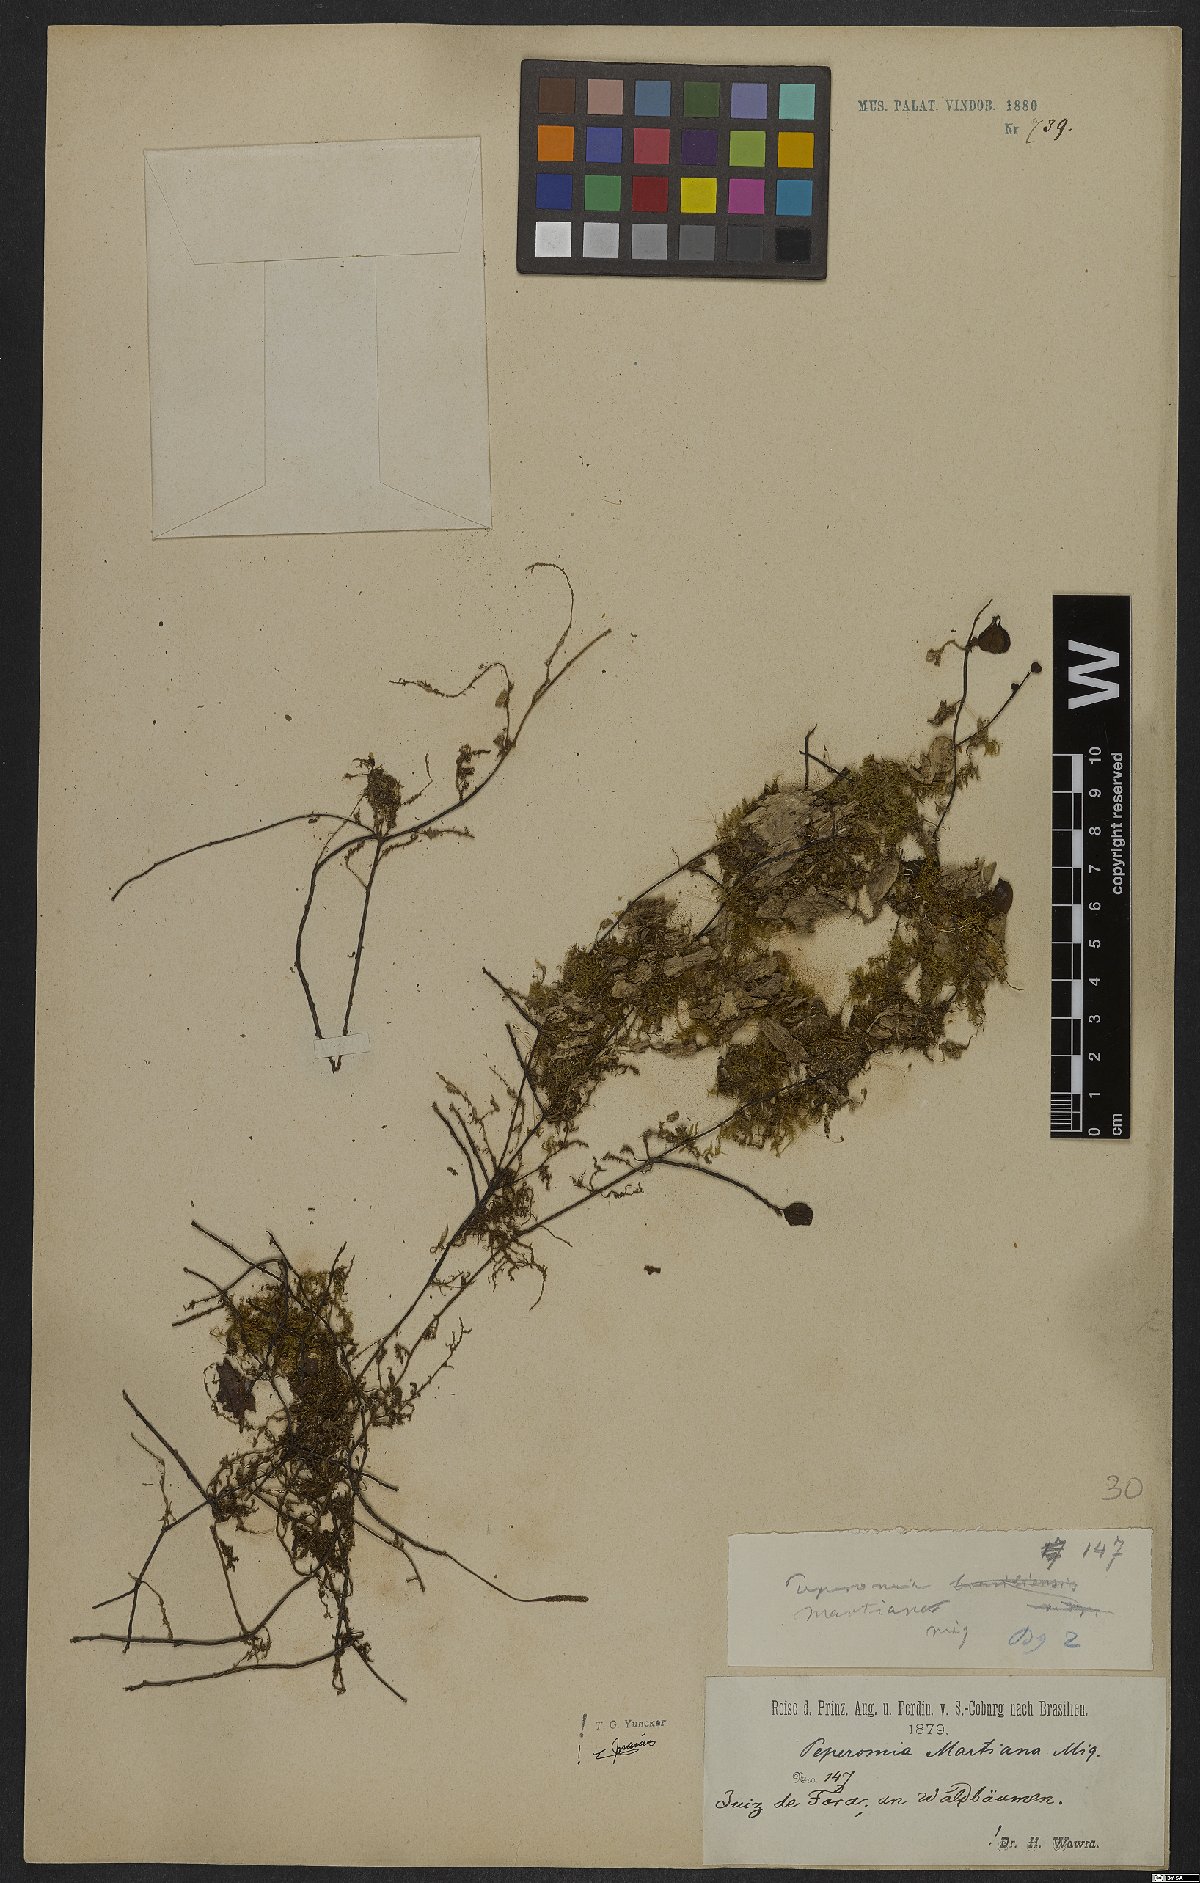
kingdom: Plantae
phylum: Tracheophyta
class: Magnoliopsida
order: Piperales
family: Piperaceae
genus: Peperomia
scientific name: Peperomia martiana
